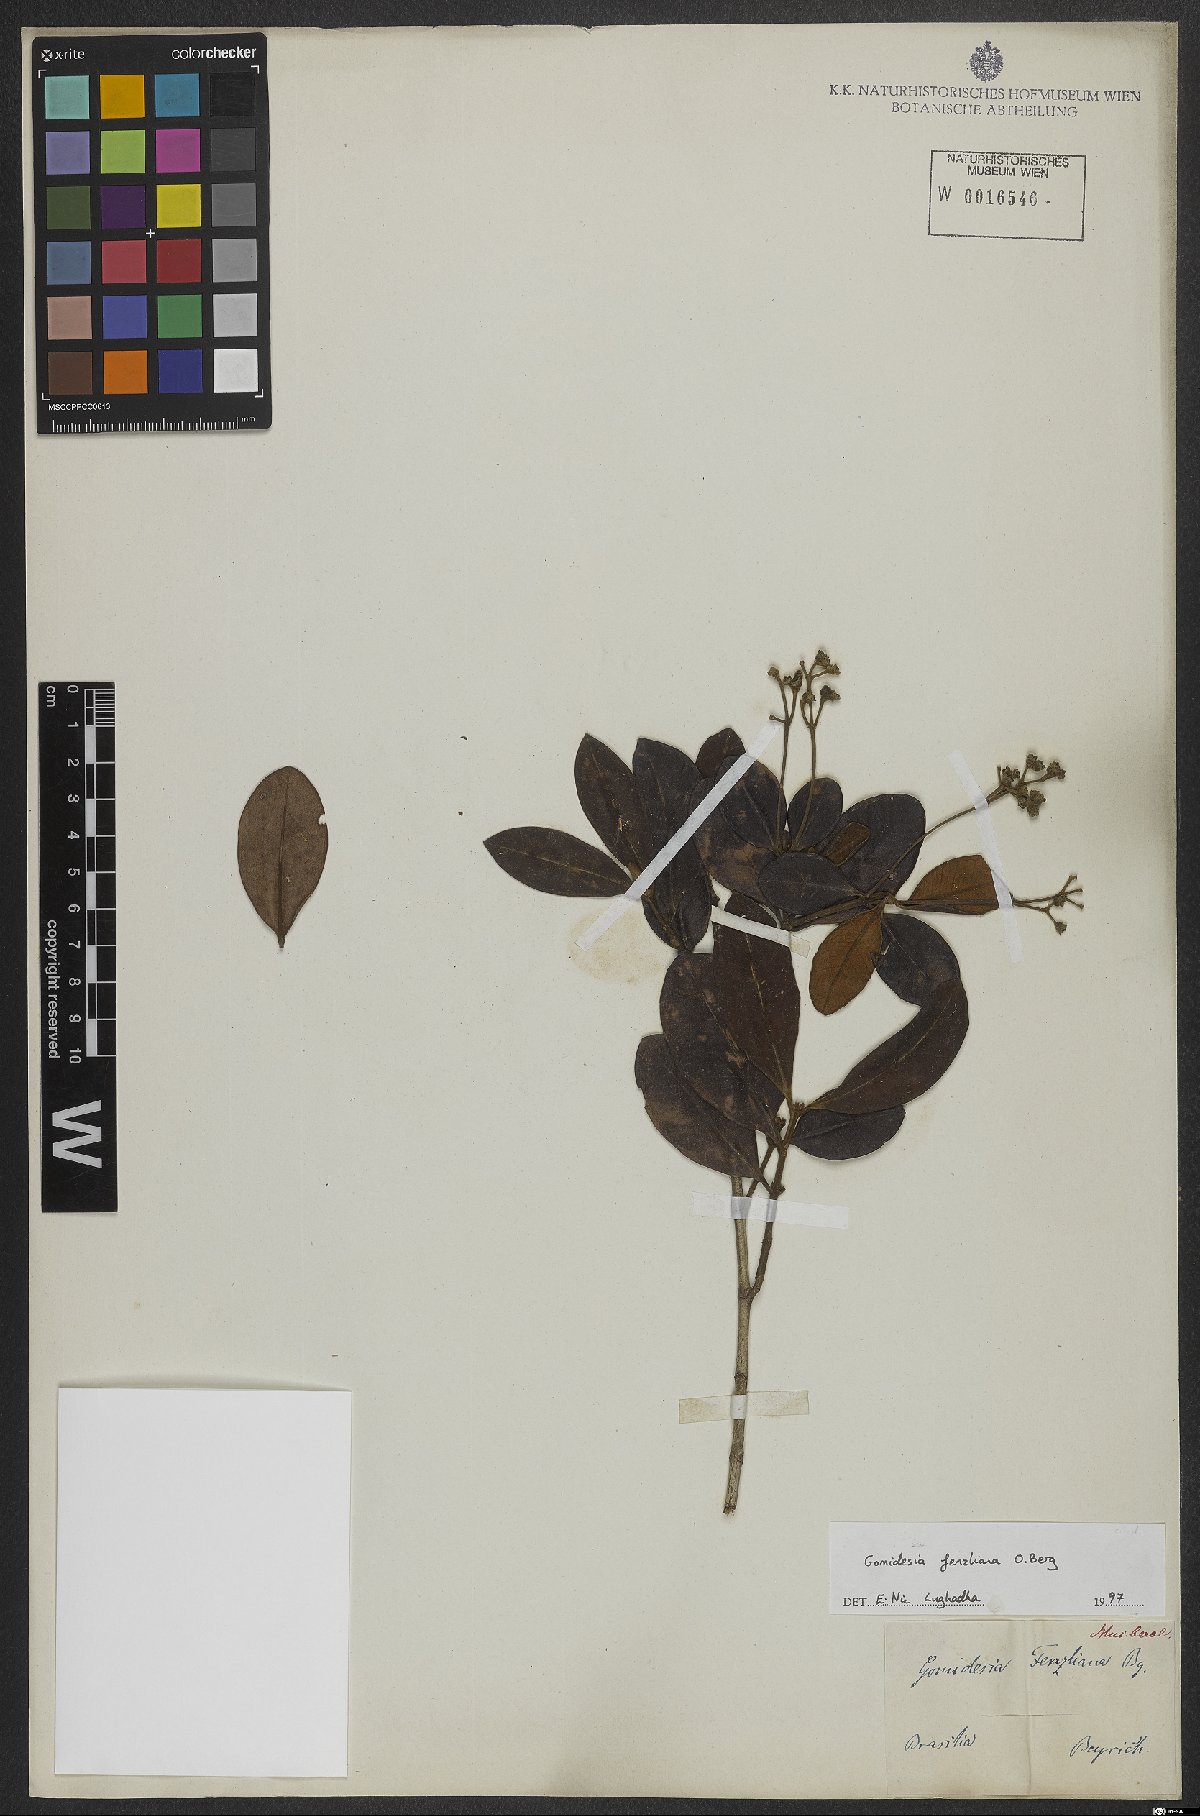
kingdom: Plantae
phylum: Tracheophyta
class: Magnoliopsida
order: Myrtales
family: Myrtaceae
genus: Myrcia
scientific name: Myrcia ilheosensis
